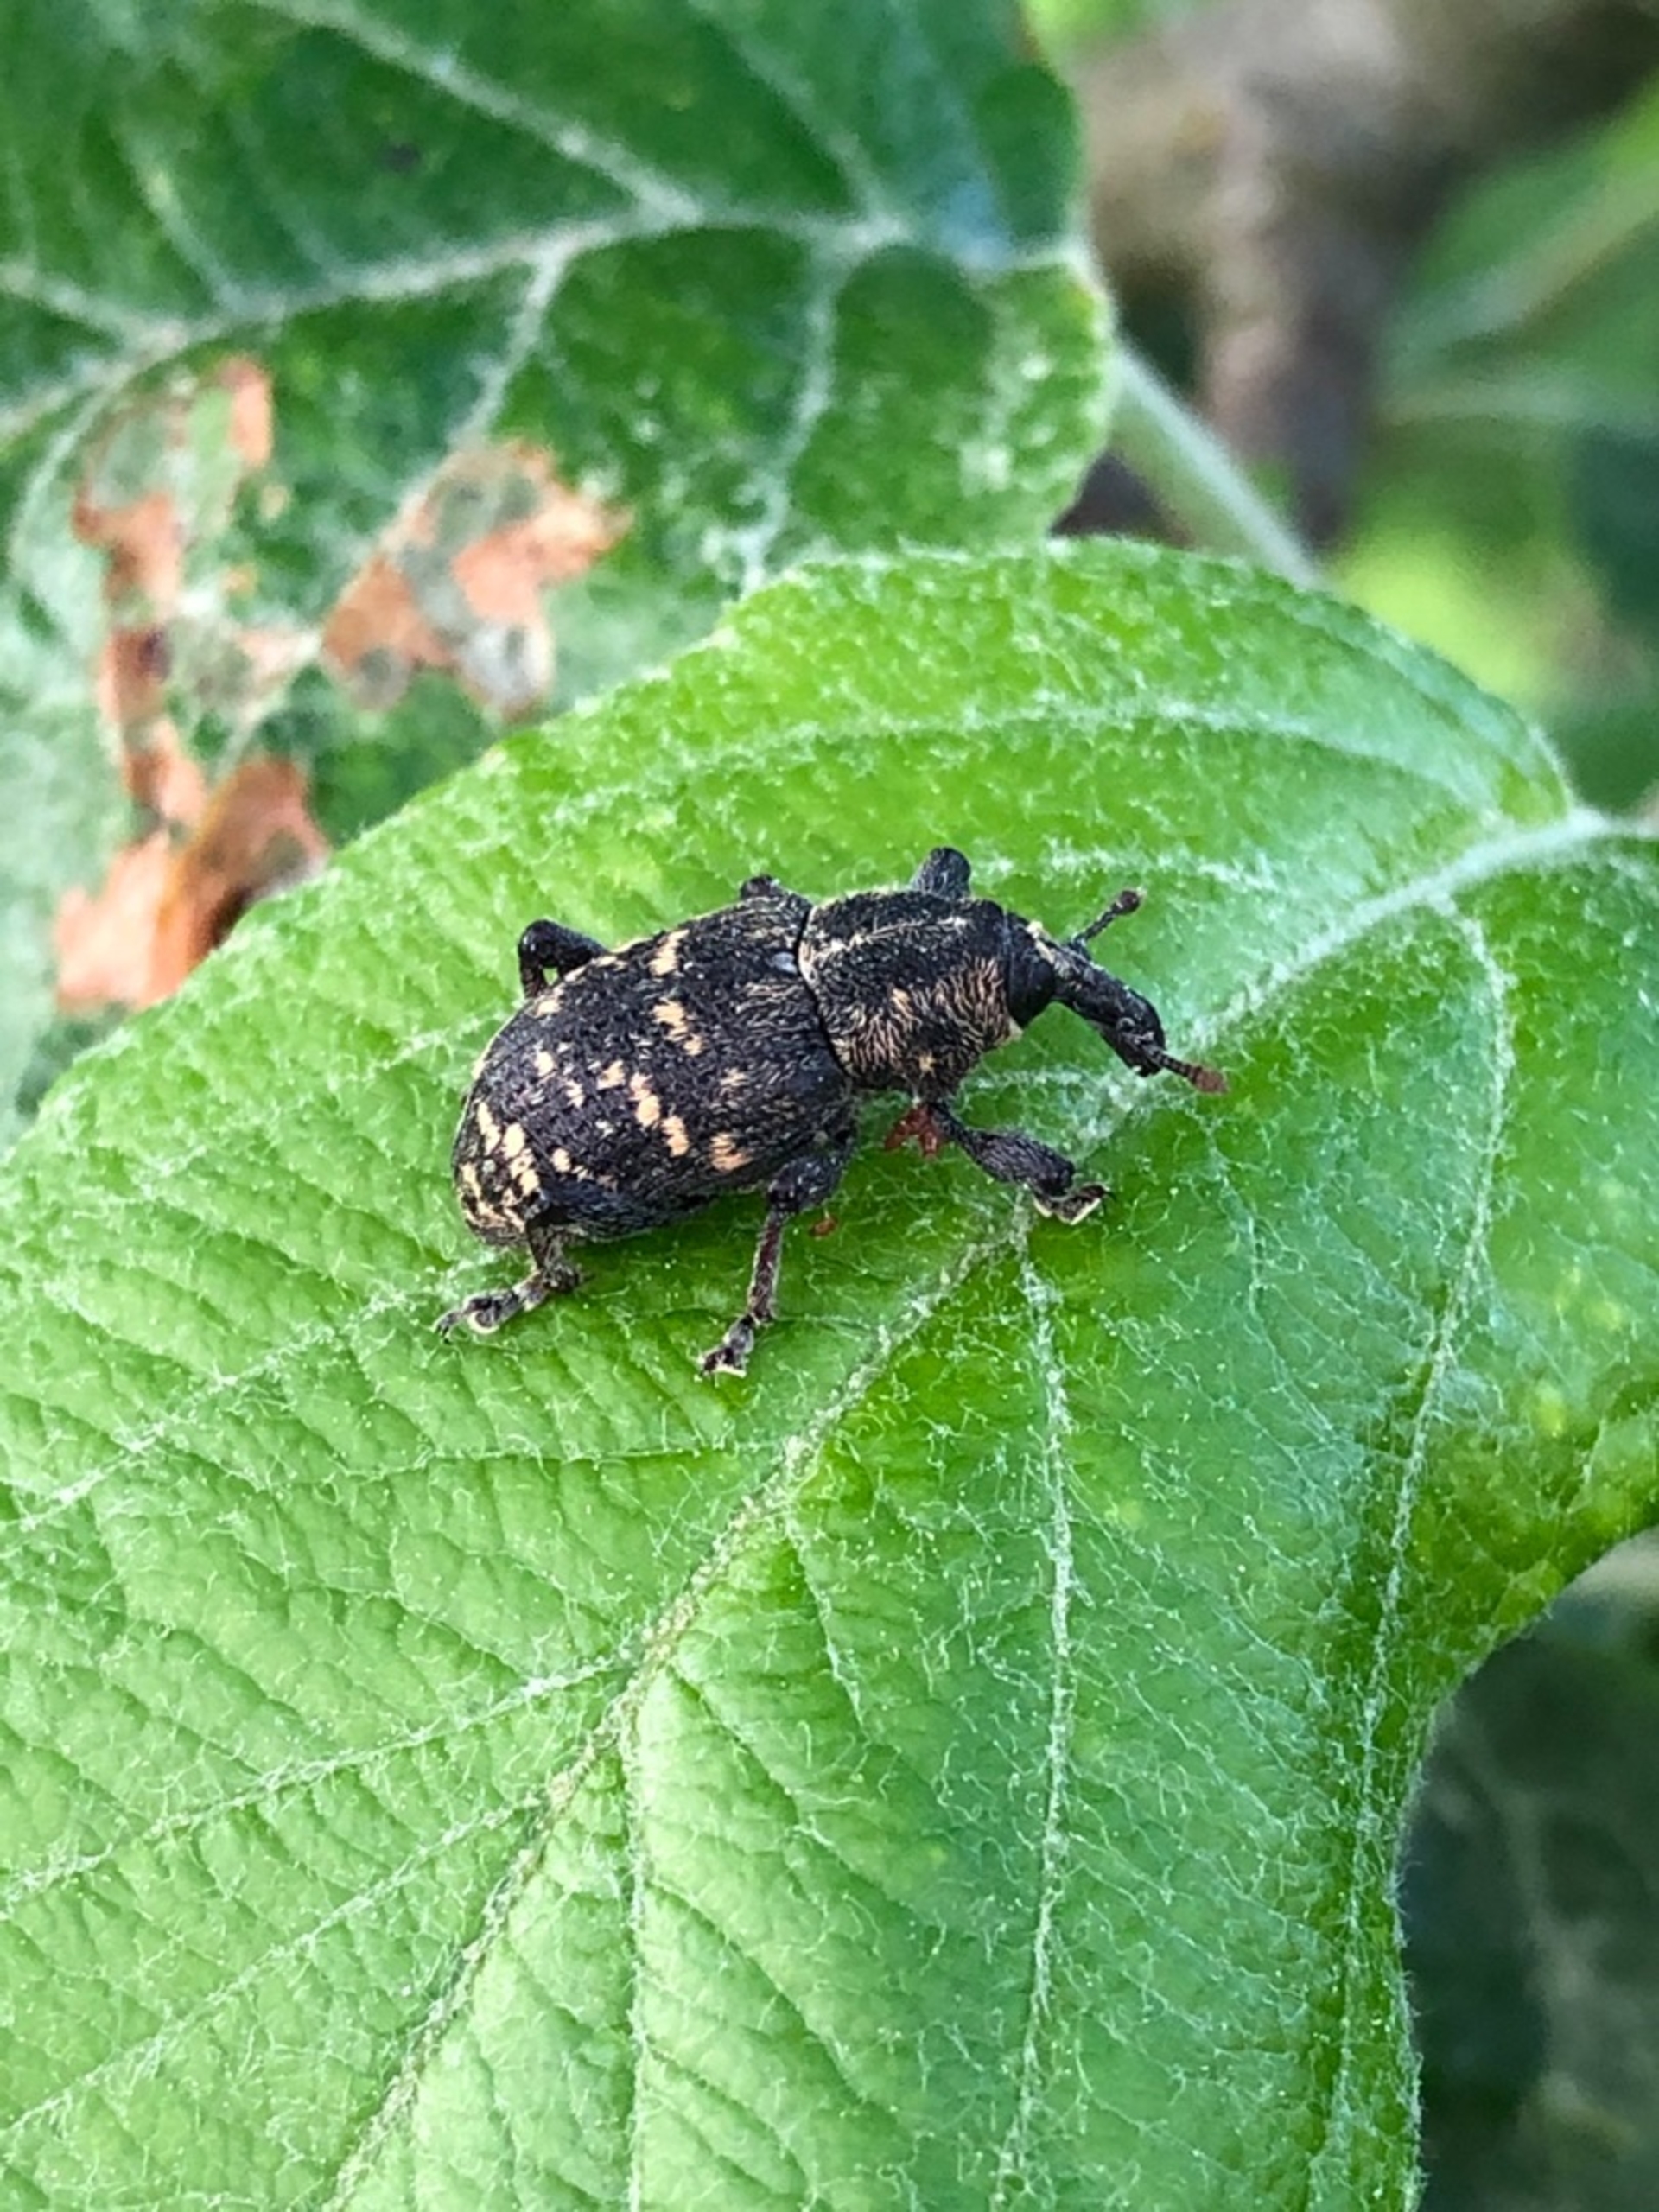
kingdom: Animalia
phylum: Arthropoda
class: Insecta
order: Coleoptera
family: Curculionidae
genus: Hylobius
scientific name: Hylobius abietis
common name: Stor nåletræsnudebille
